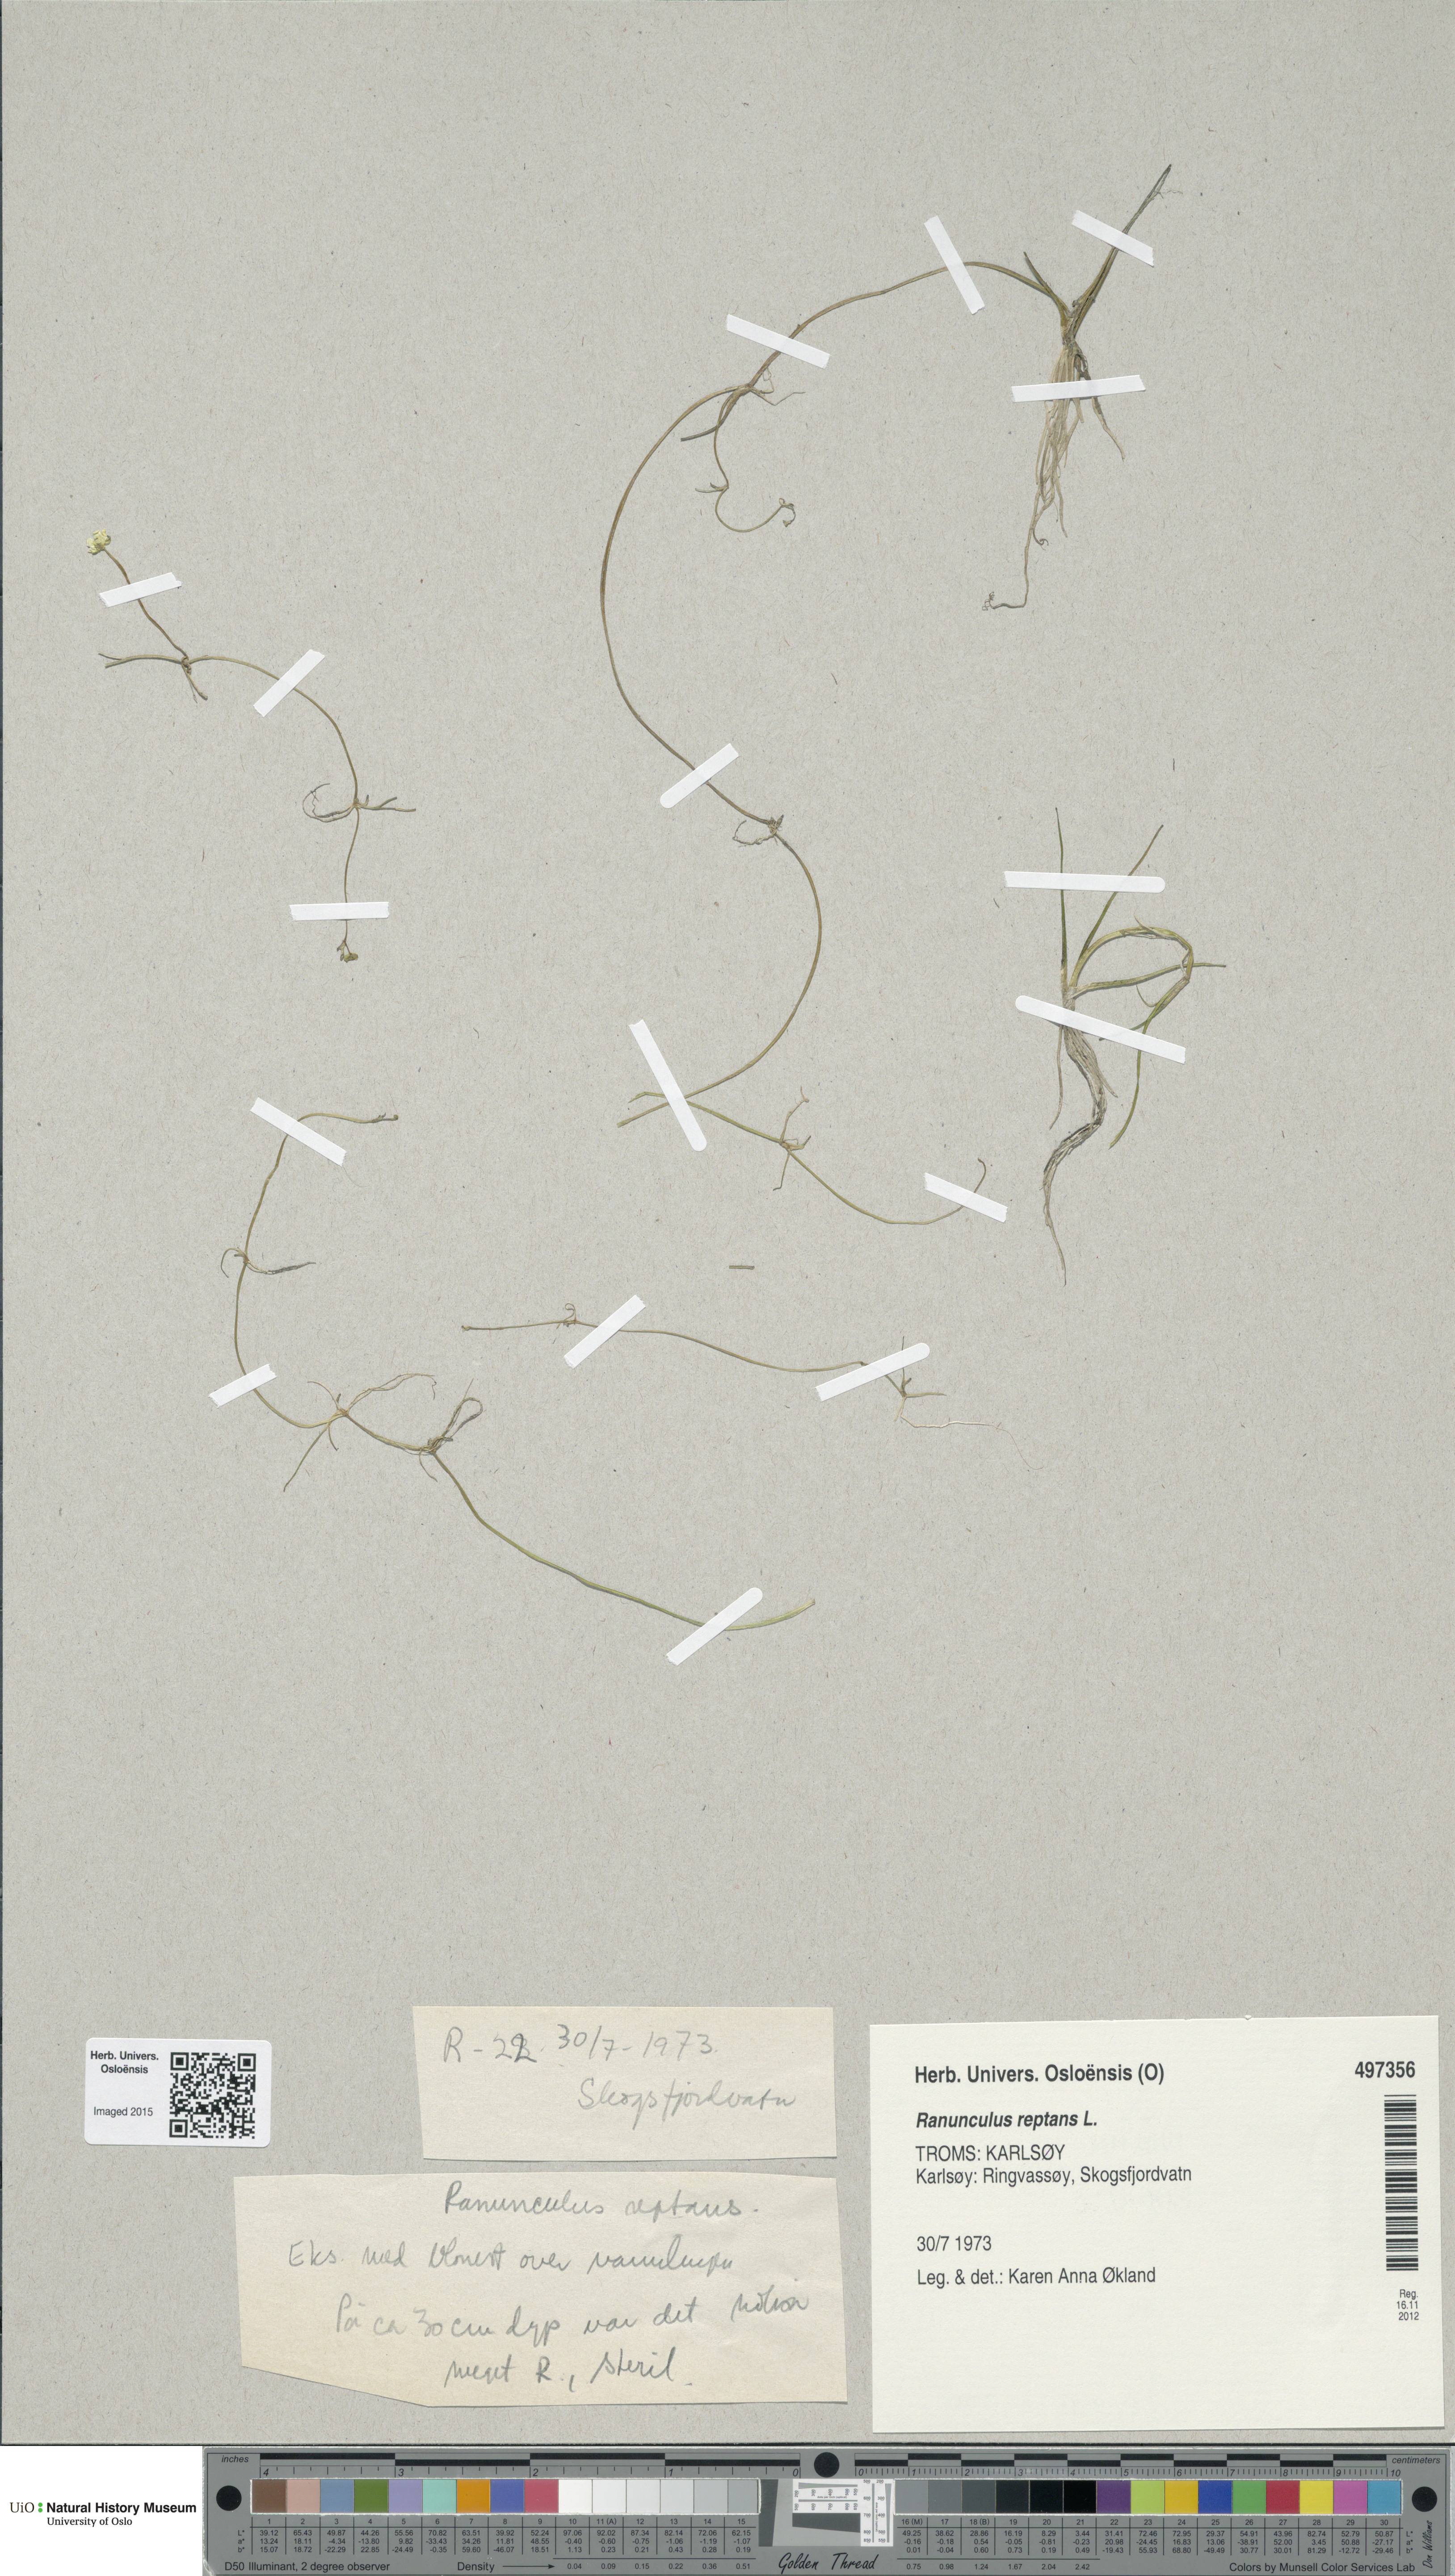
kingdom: Plantae
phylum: Tracheophyta
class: Magnoliopsida
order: Ranunculales
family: Ranunculaceae
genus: Ranunculus
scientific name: Ranunculus reptans
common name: Creeping spearwort
